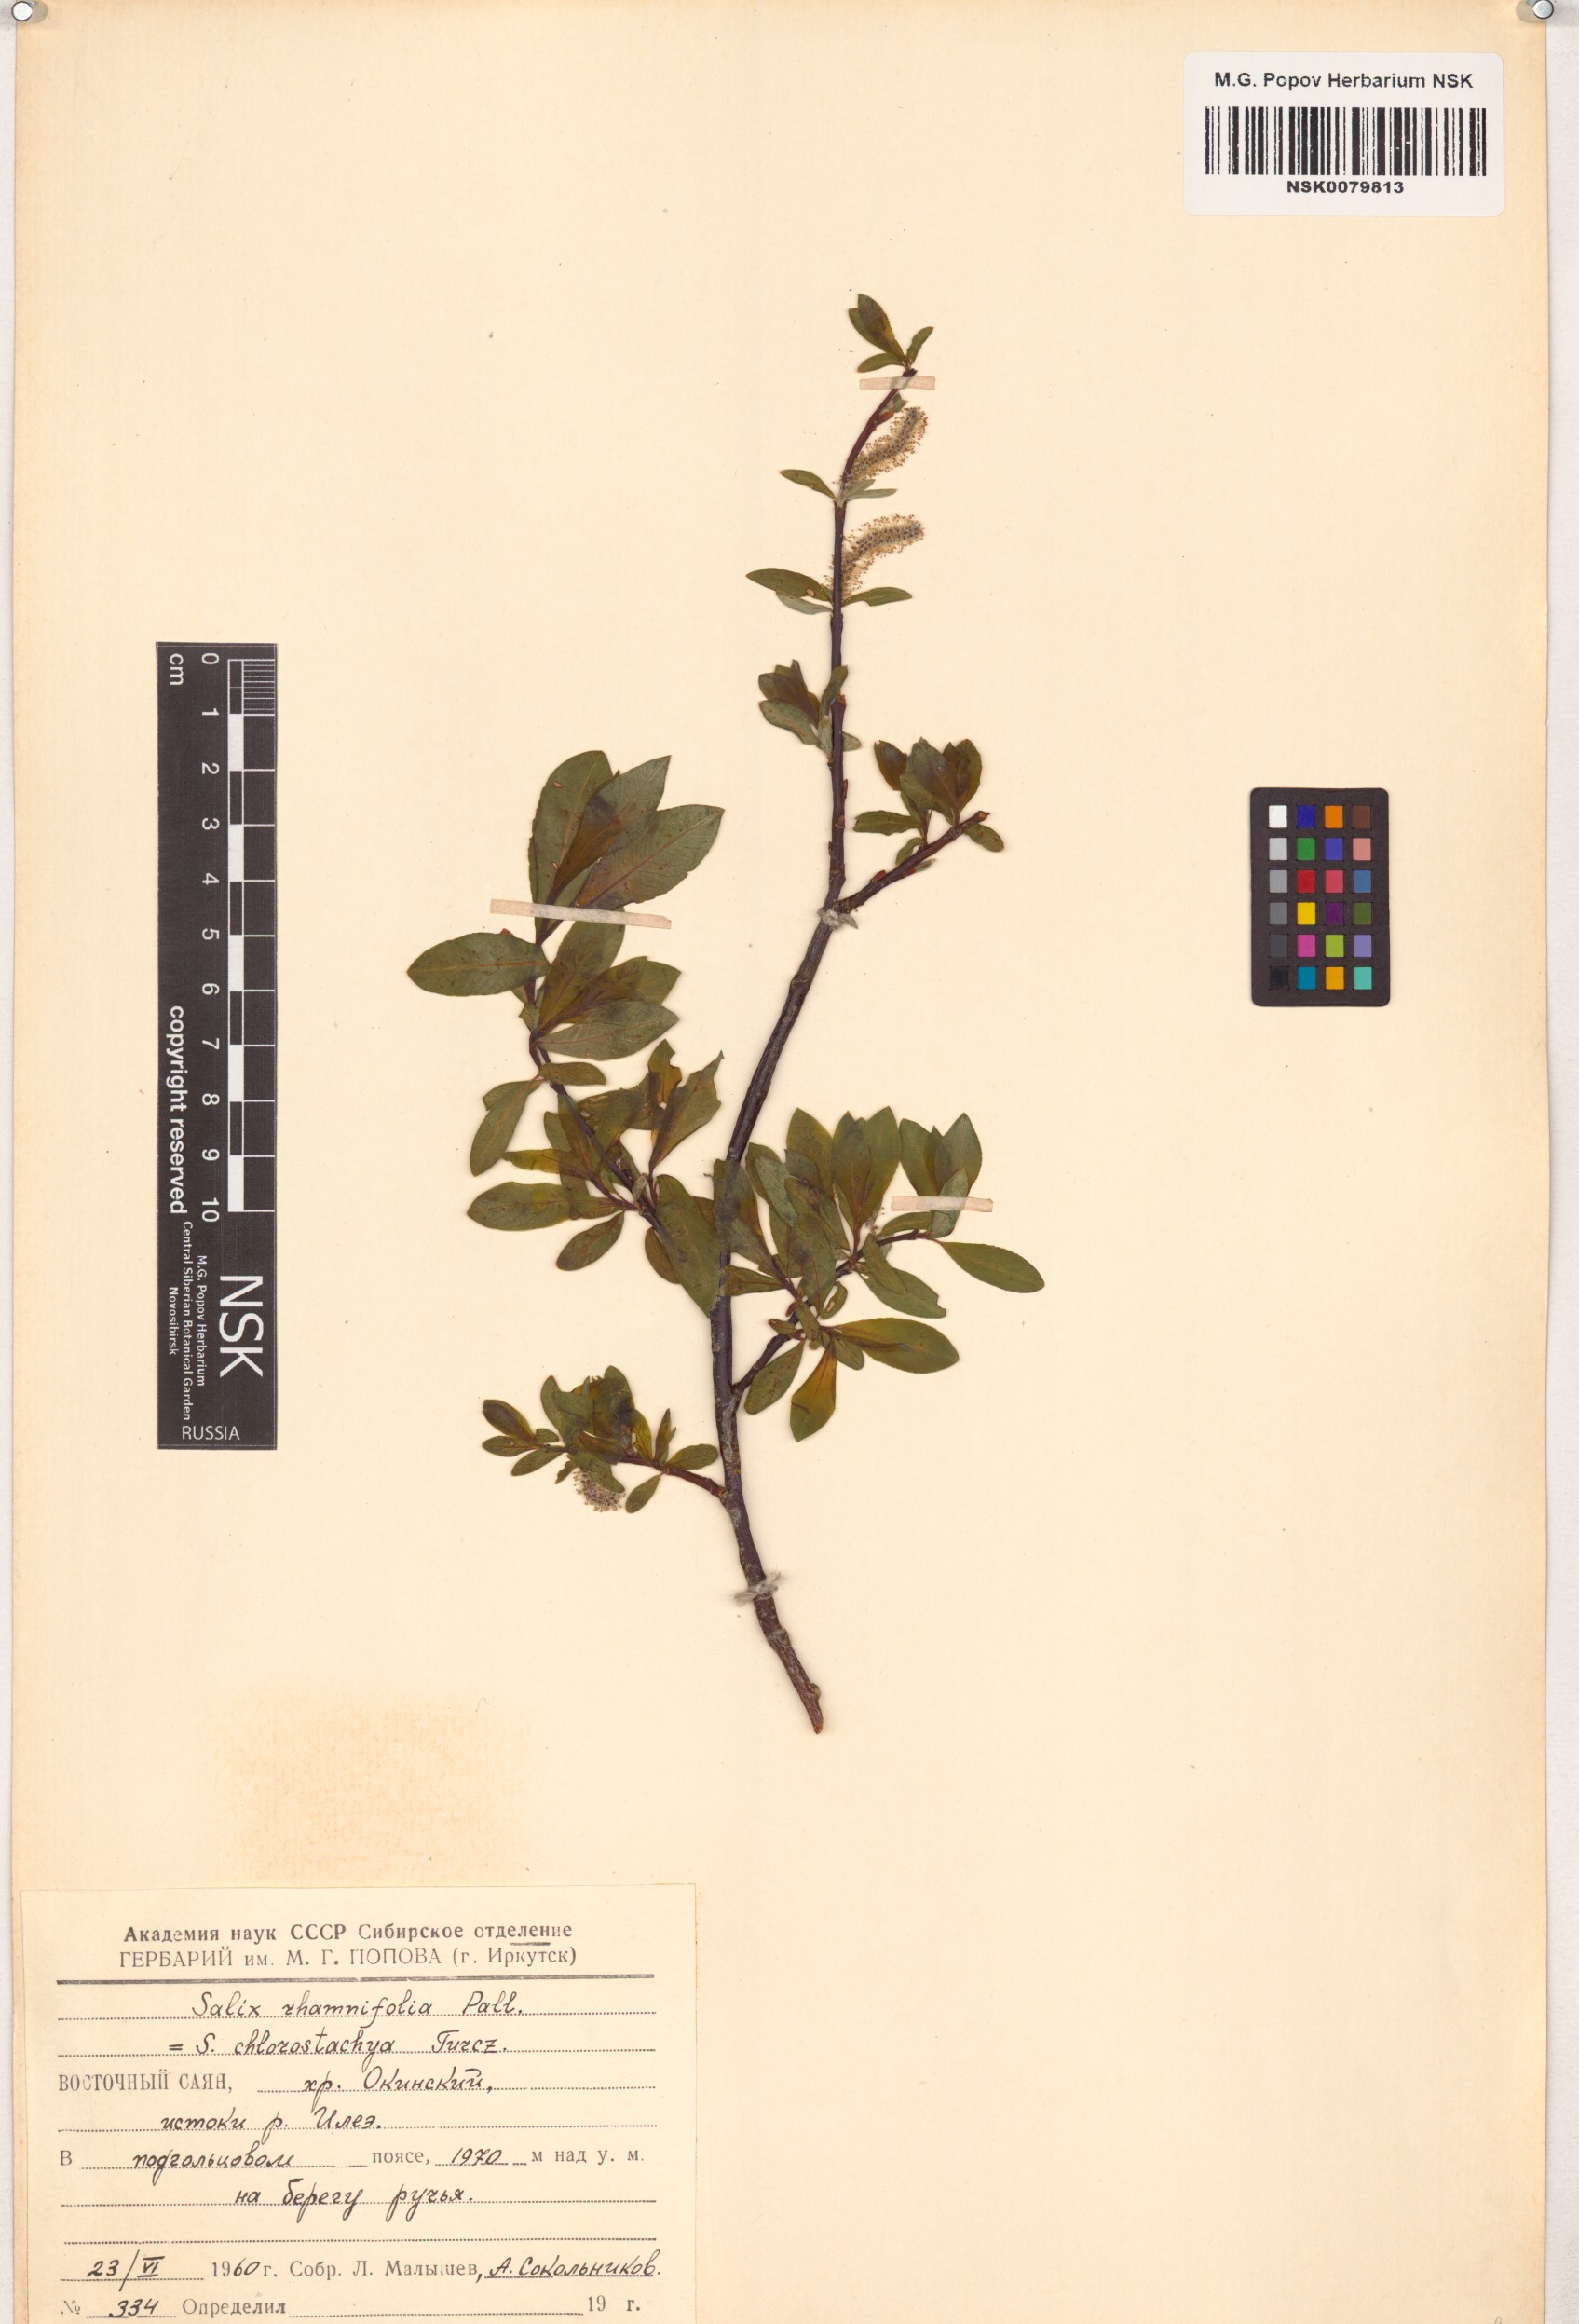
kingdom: Plantae
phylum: Tracheophyta
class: Magnoliopsida
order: Malpighiales
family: Salicaceae
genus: Salix
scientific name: Salix rhamnifolia
